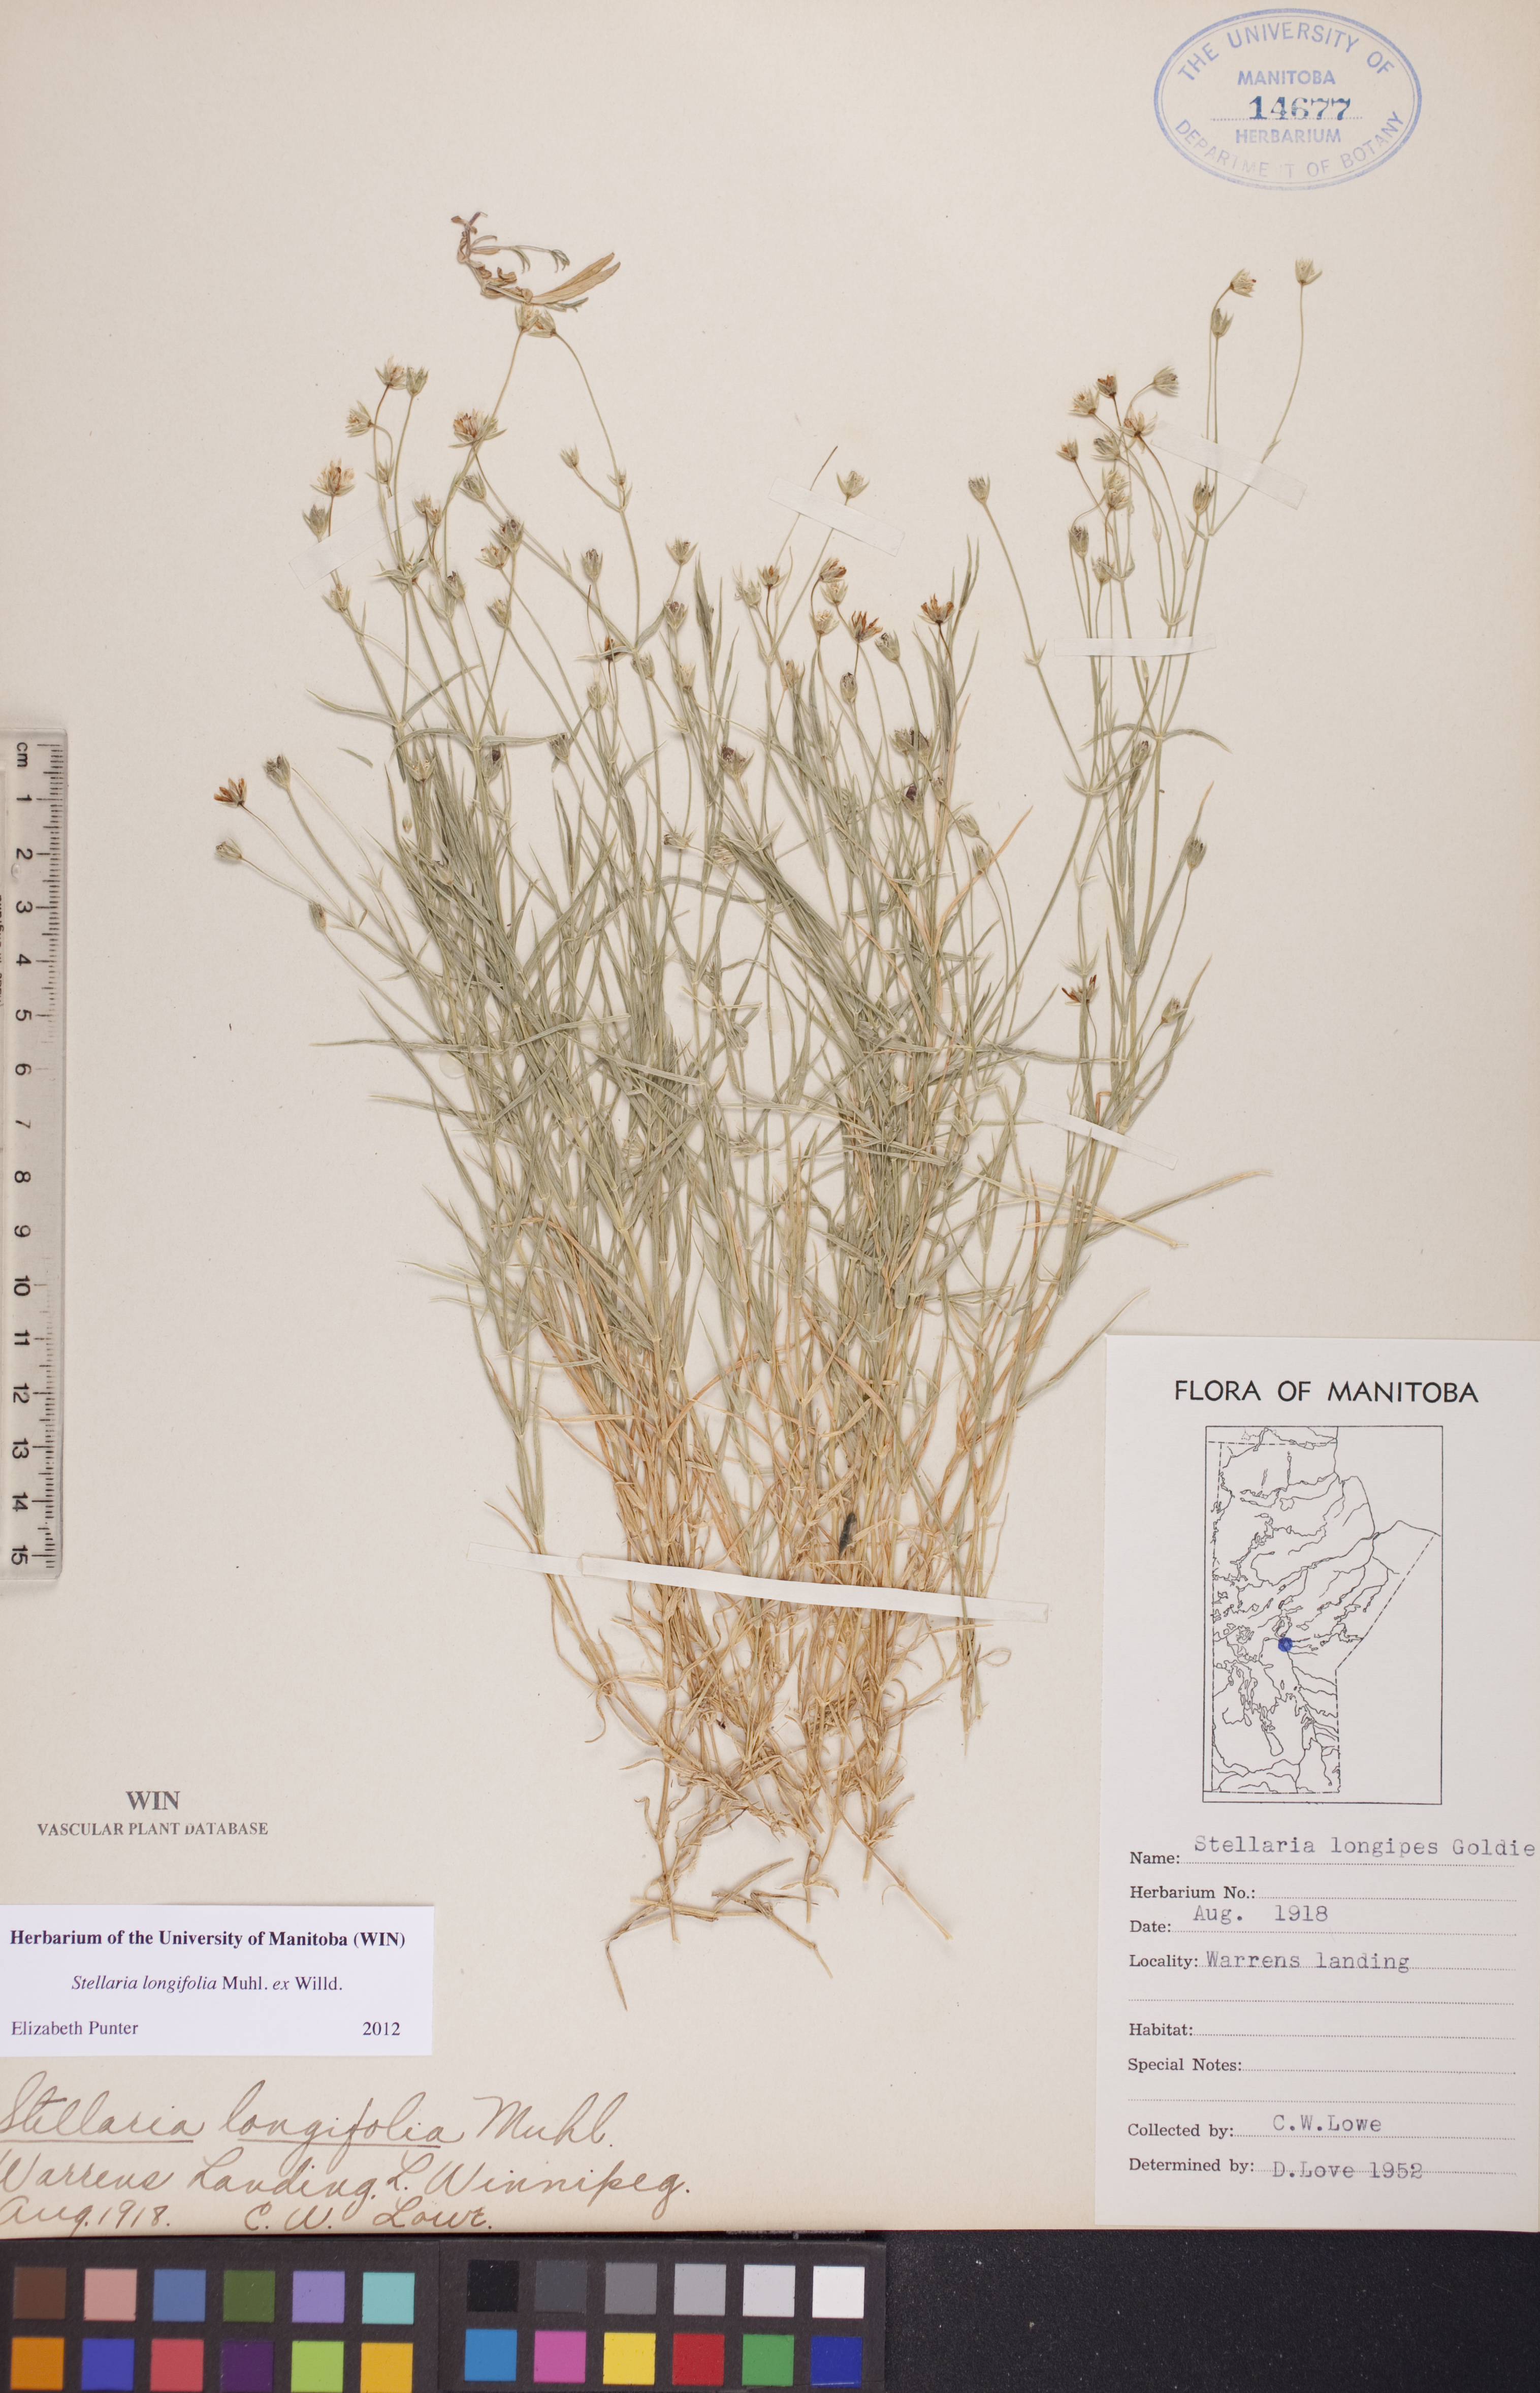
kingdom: Plantae
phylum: Tracheophyta
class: Magnoliopsida
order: Caryophyllales
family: Caryophyllaceae
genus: Stellaria
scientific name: Stellaria longifolia
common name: Long-leaved chickweed
